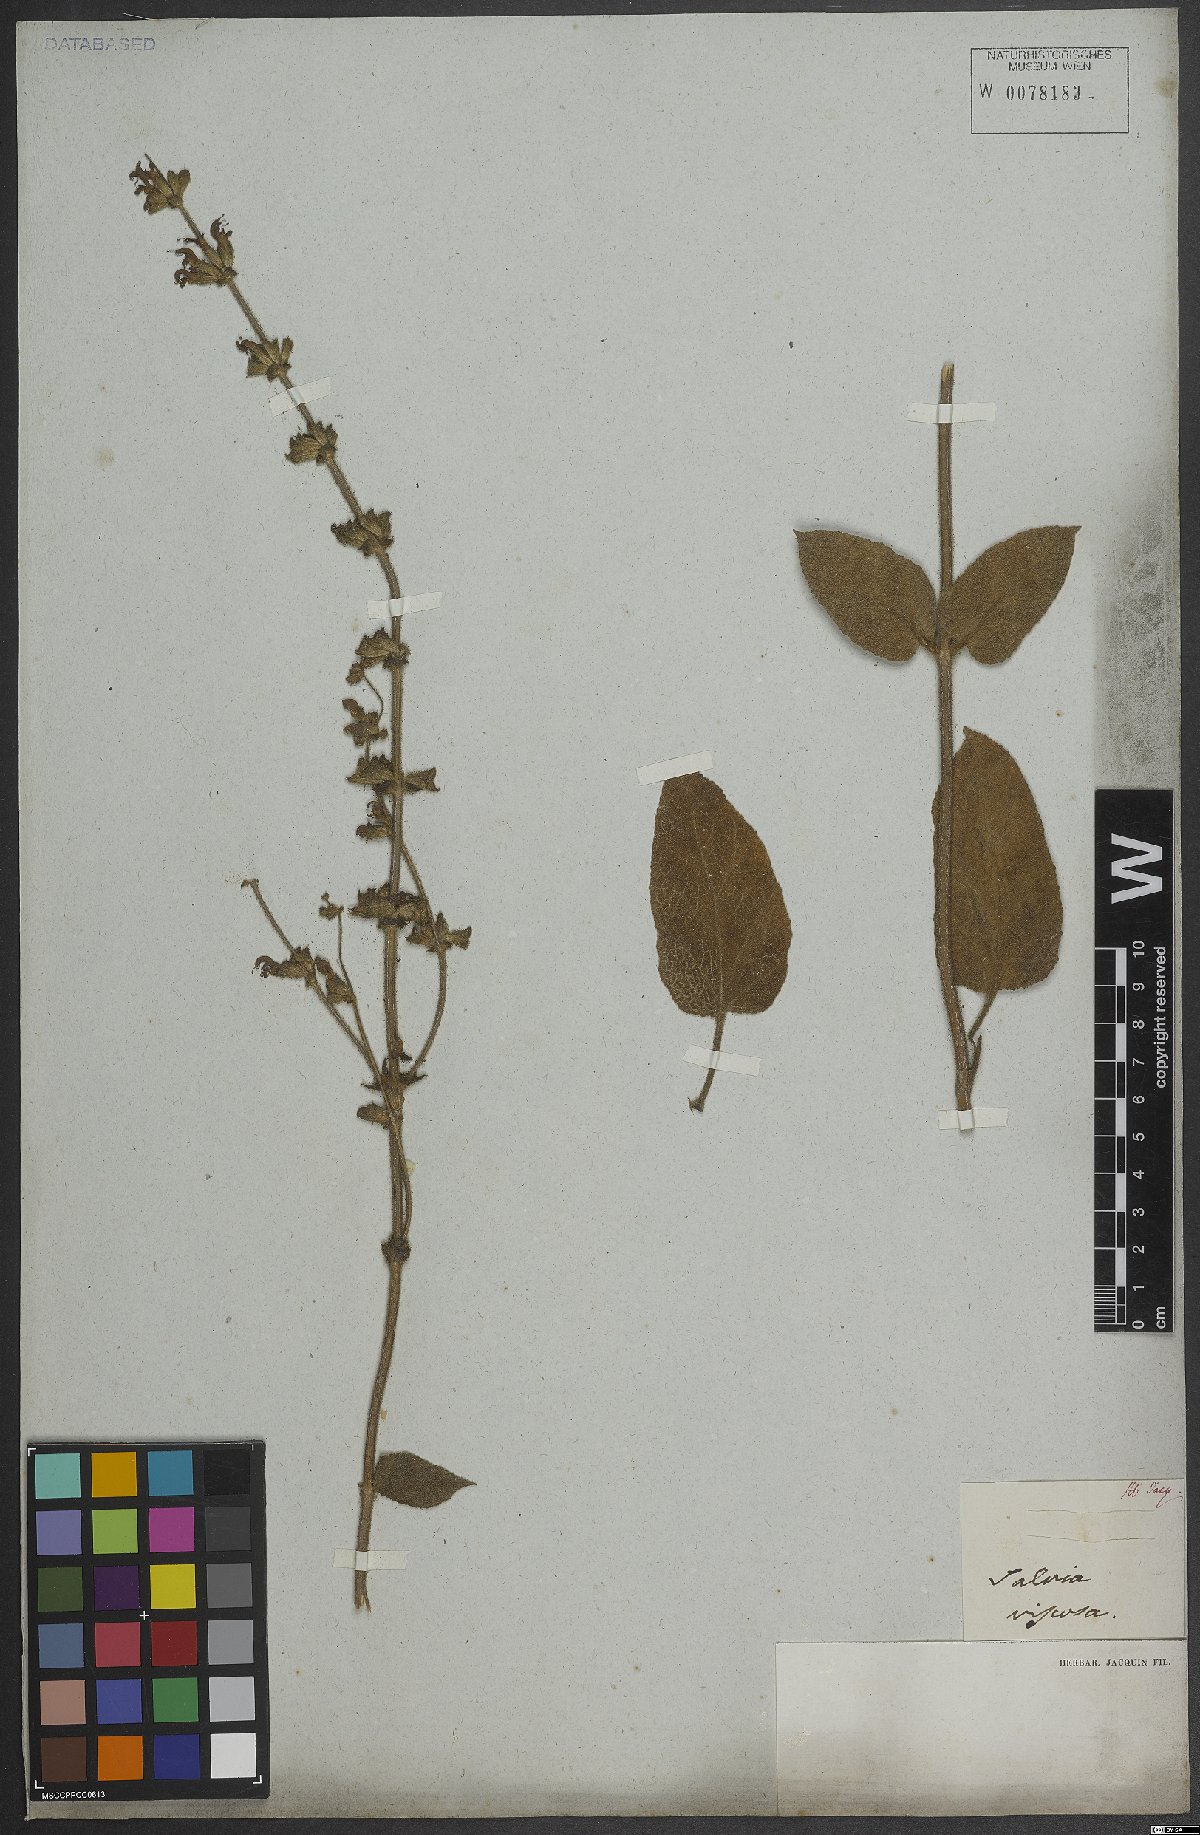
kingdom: Plantae
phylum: Tracheophyta
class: Magnoliopsida
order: Lamiales
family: Lamiaceae
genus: Salvia
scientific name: Salvia viscosa
